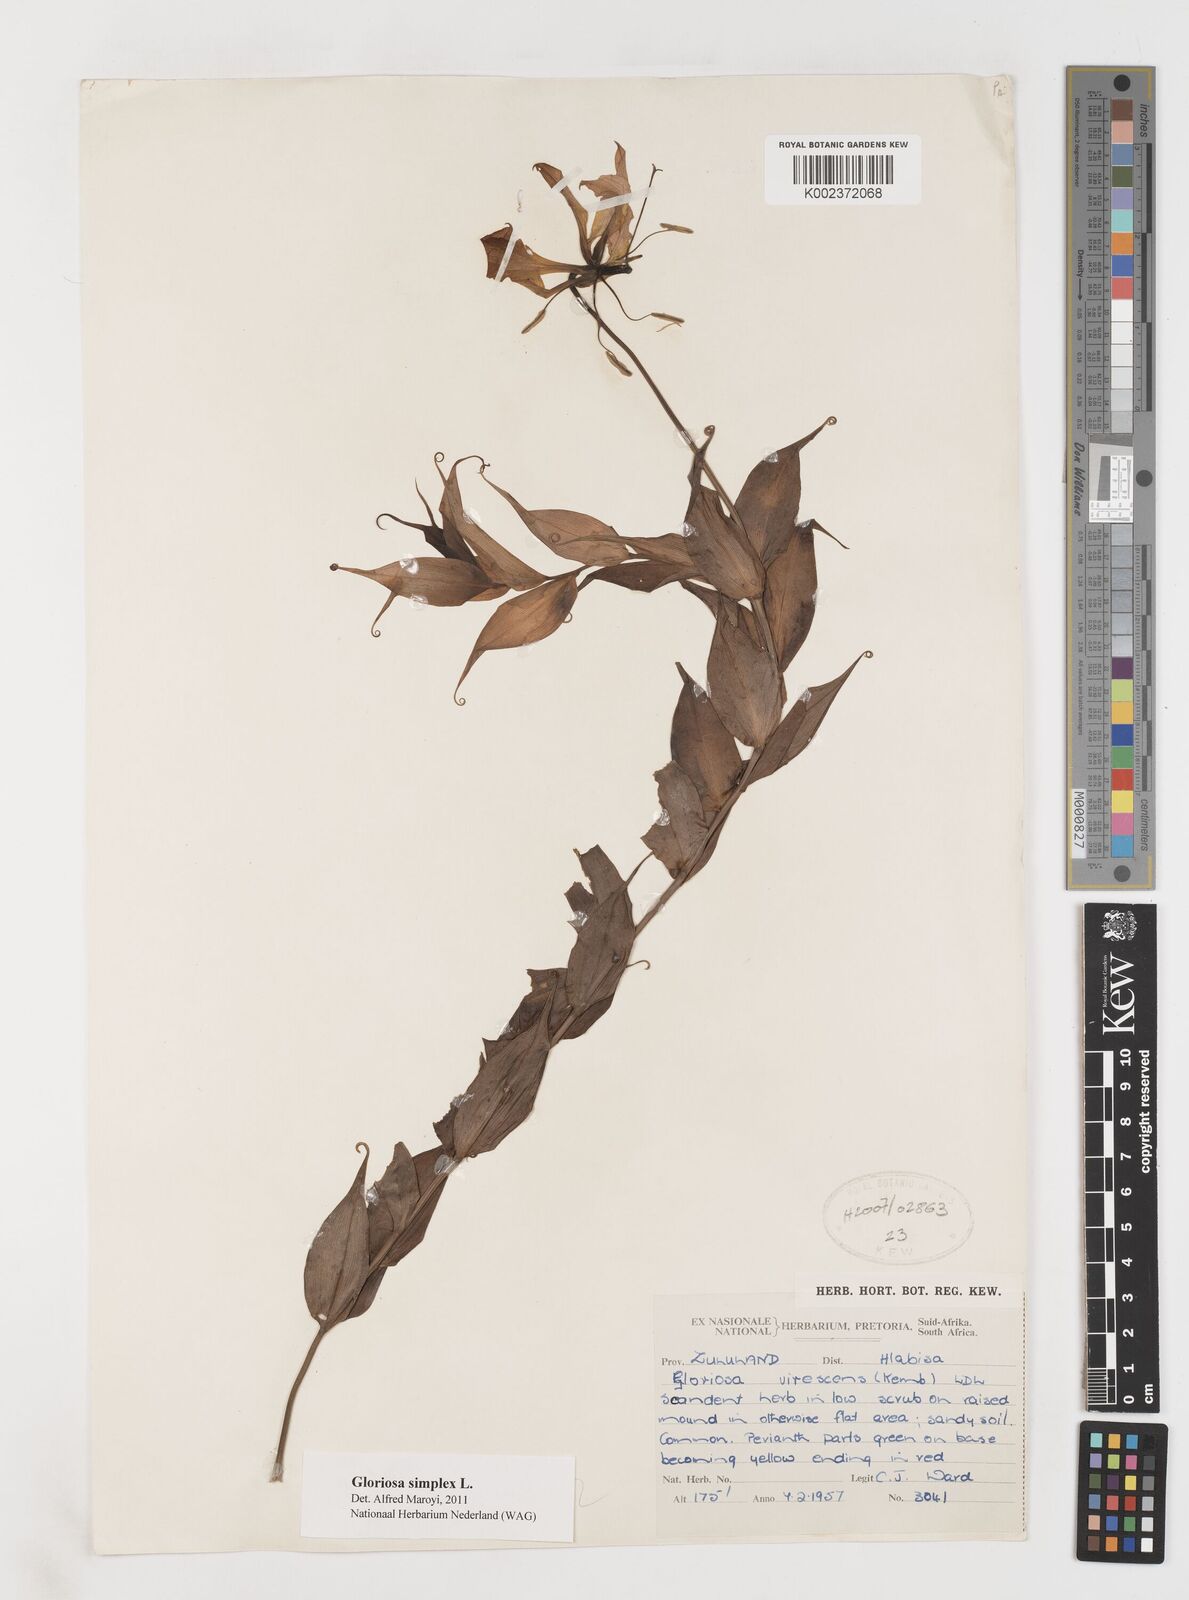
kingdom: Plantae
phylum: Tracheophyta
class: Liliopsida
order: Liliales
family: Colchicaceae
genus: Gloriosa
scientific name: Gloriosa simplex
